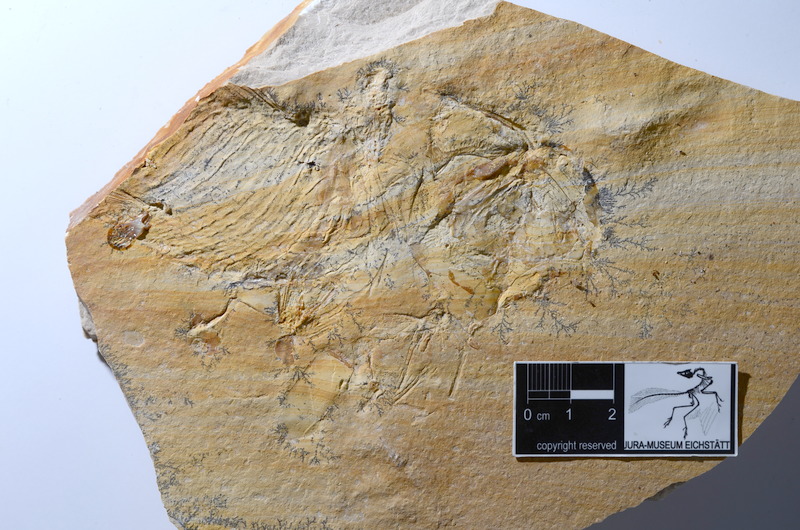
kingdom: Animalia
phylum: Chordata
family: Ankylophoridae
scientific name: Ankylophoridae
